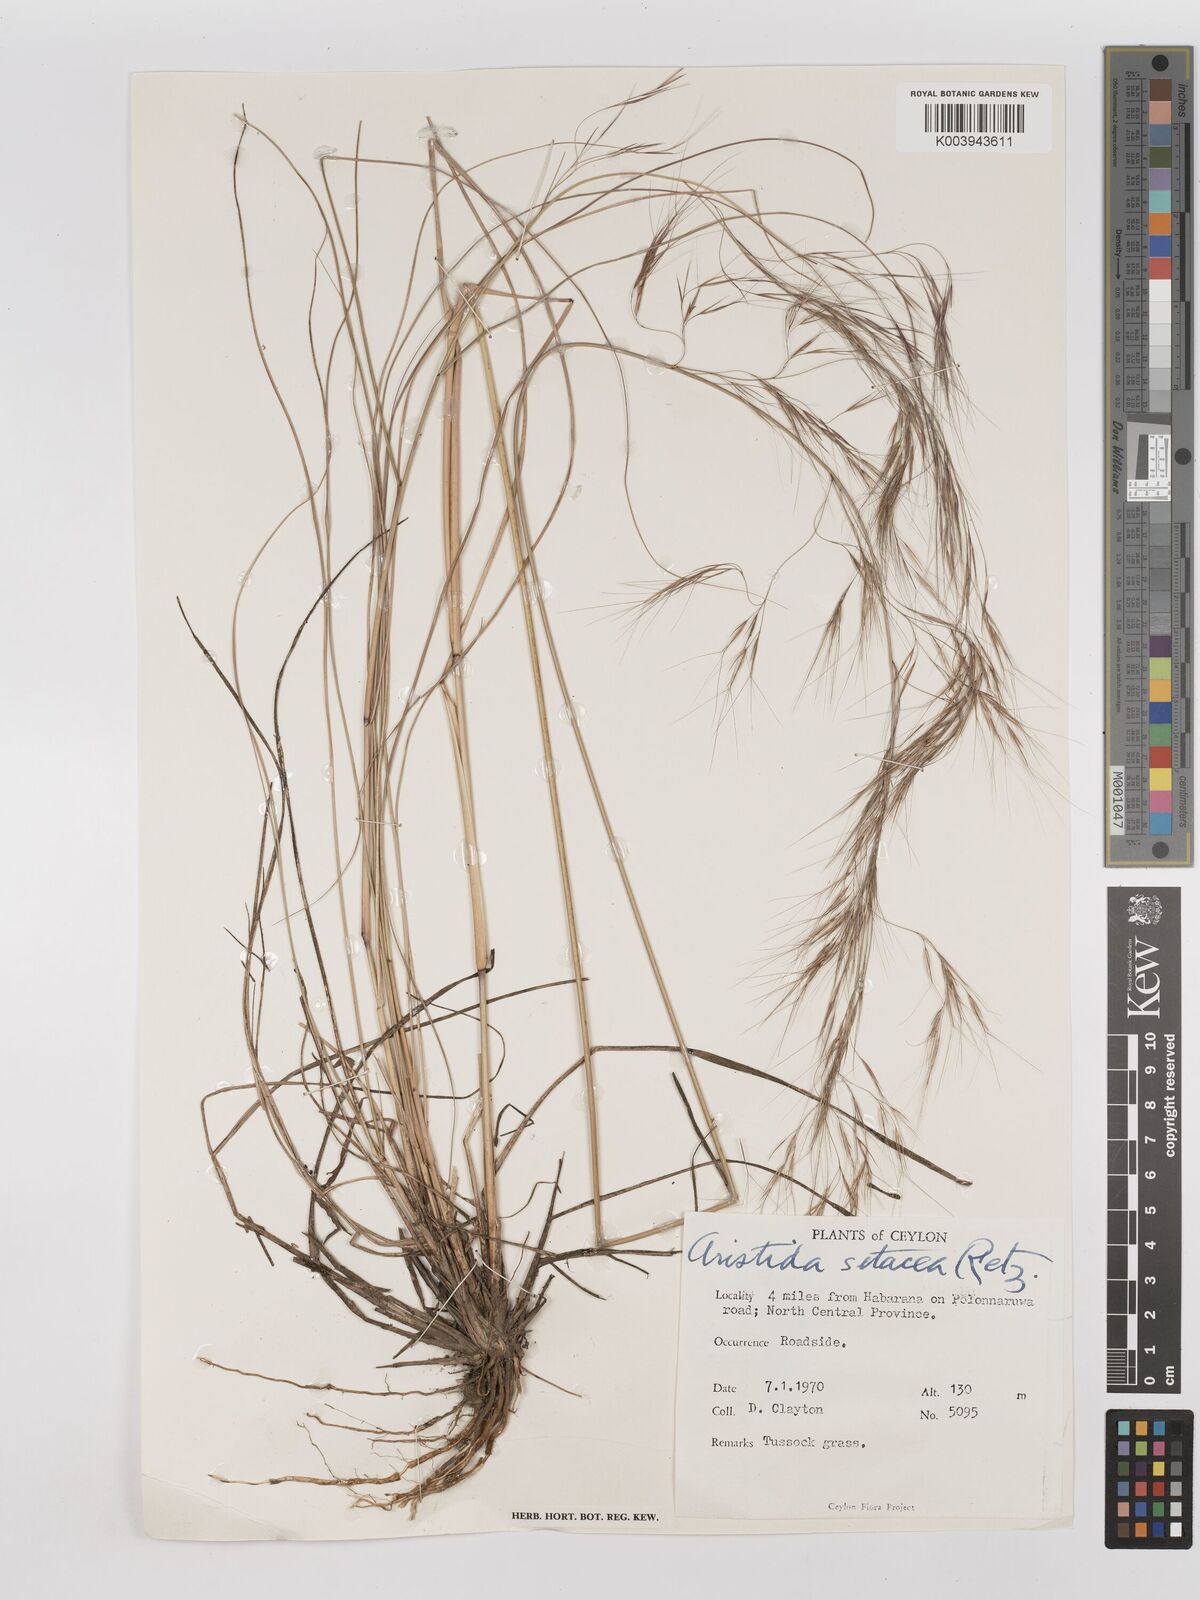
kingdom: Plantae
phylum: Tracheophyta
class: Liliopsida
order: Poales
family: Poaceae
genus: Aristida
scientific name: Aristida setacea
